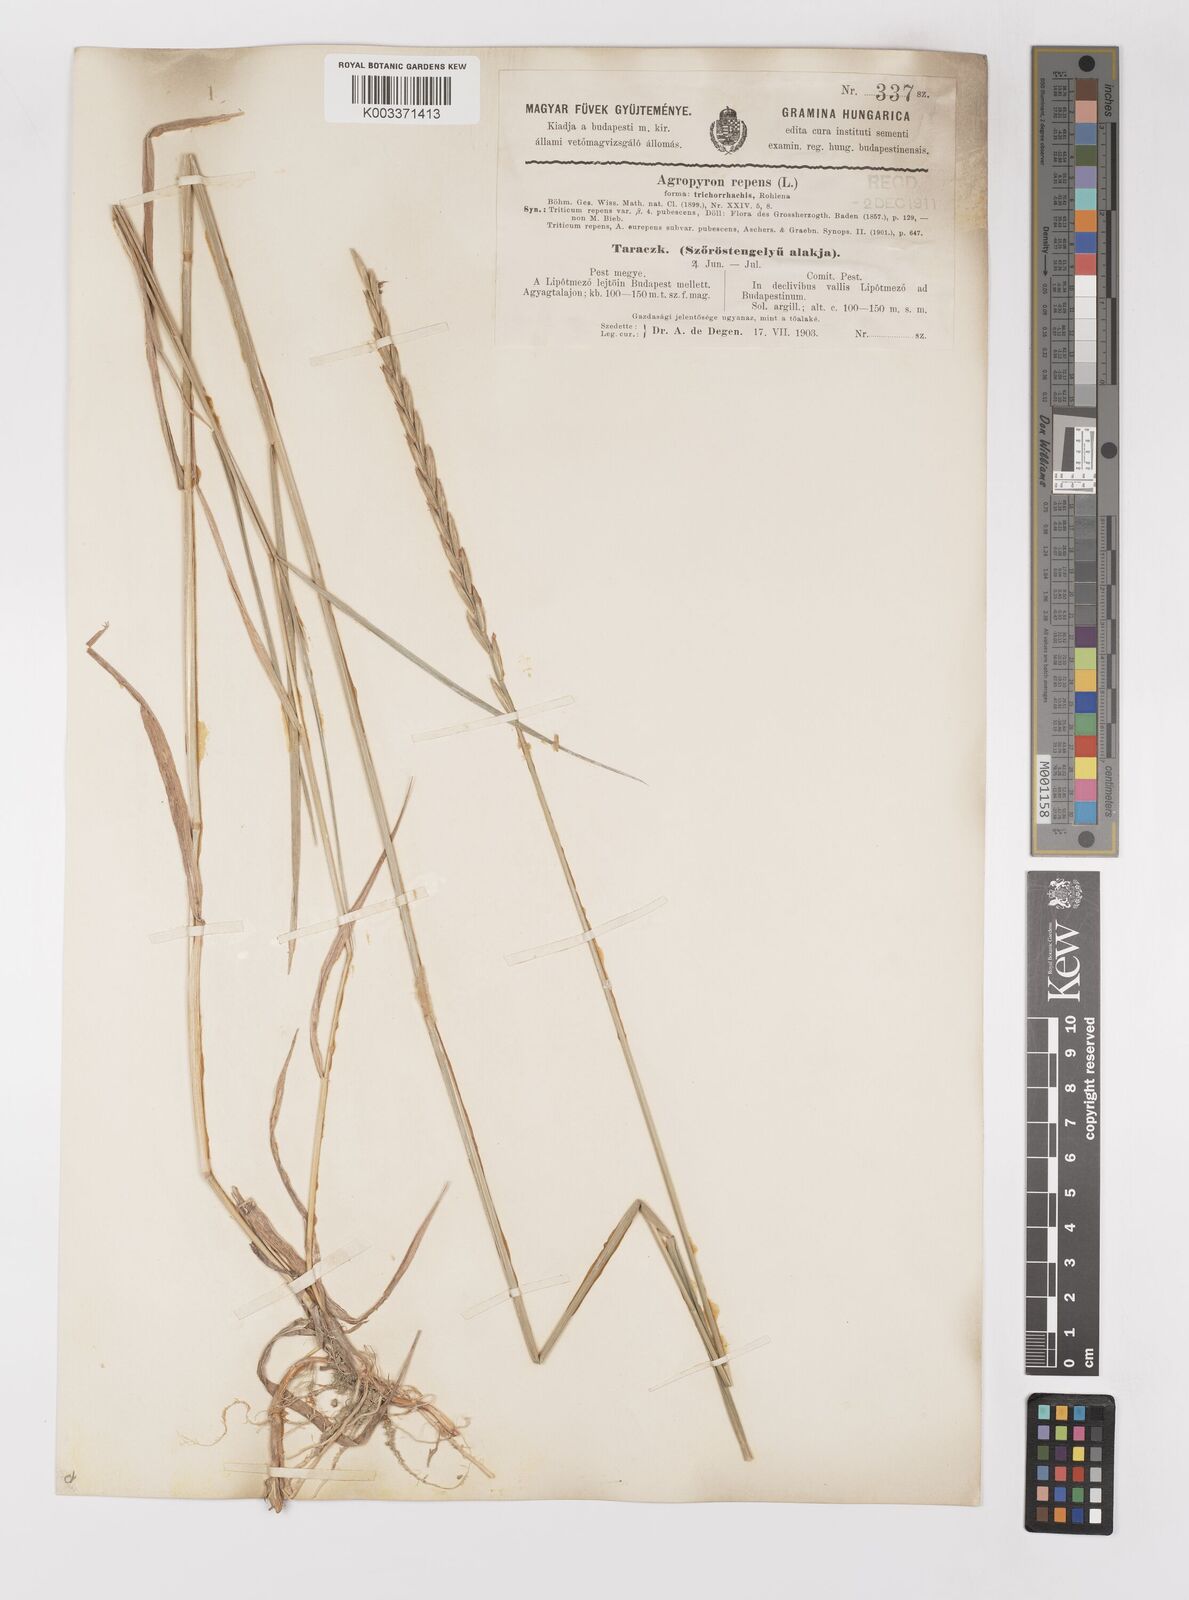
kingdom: Plantae
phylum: Tracheophyta
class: Liliopsida
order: Poales
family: Poaceae
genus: Elymus
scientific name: Elymus repens
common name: Quackgrass
